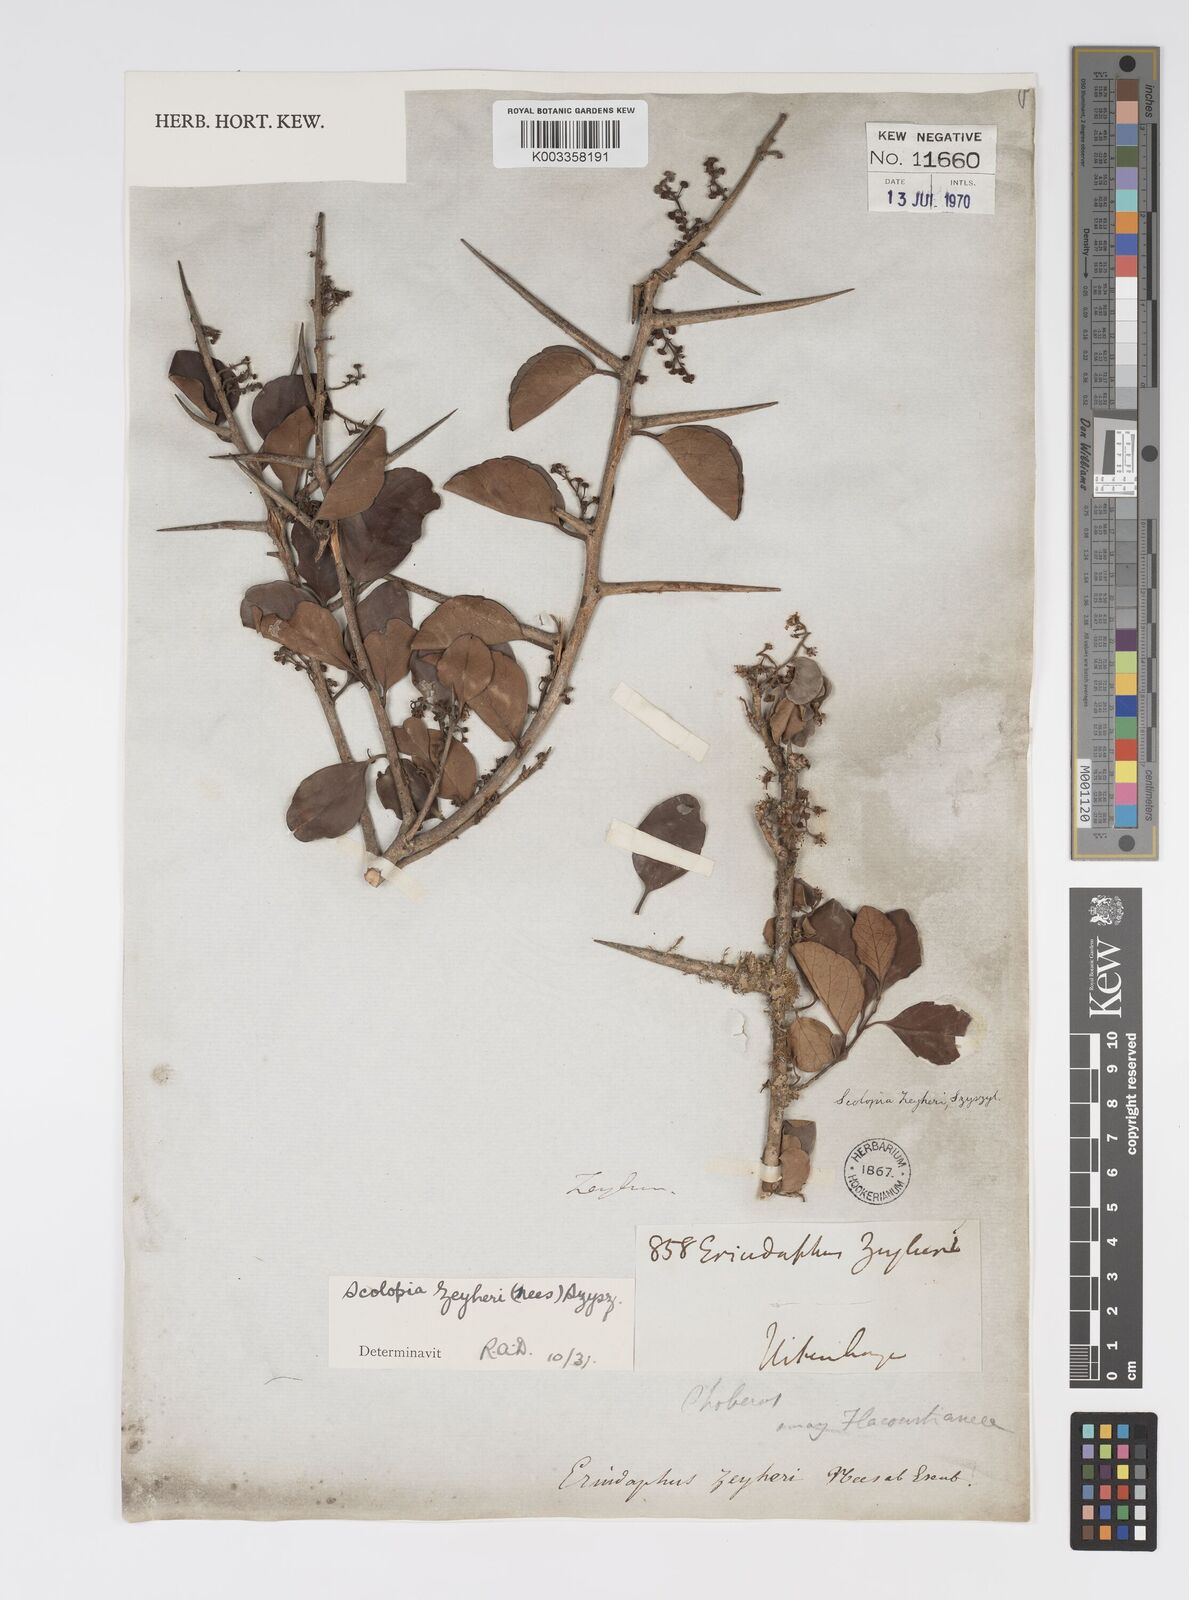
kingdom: Plantae
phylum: Tracheophyta
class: Magnoliopsida
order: Malpighiales
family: Salicaceae
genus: Scolopia
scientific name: Scolopia zeyheri
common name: Thorn pear
